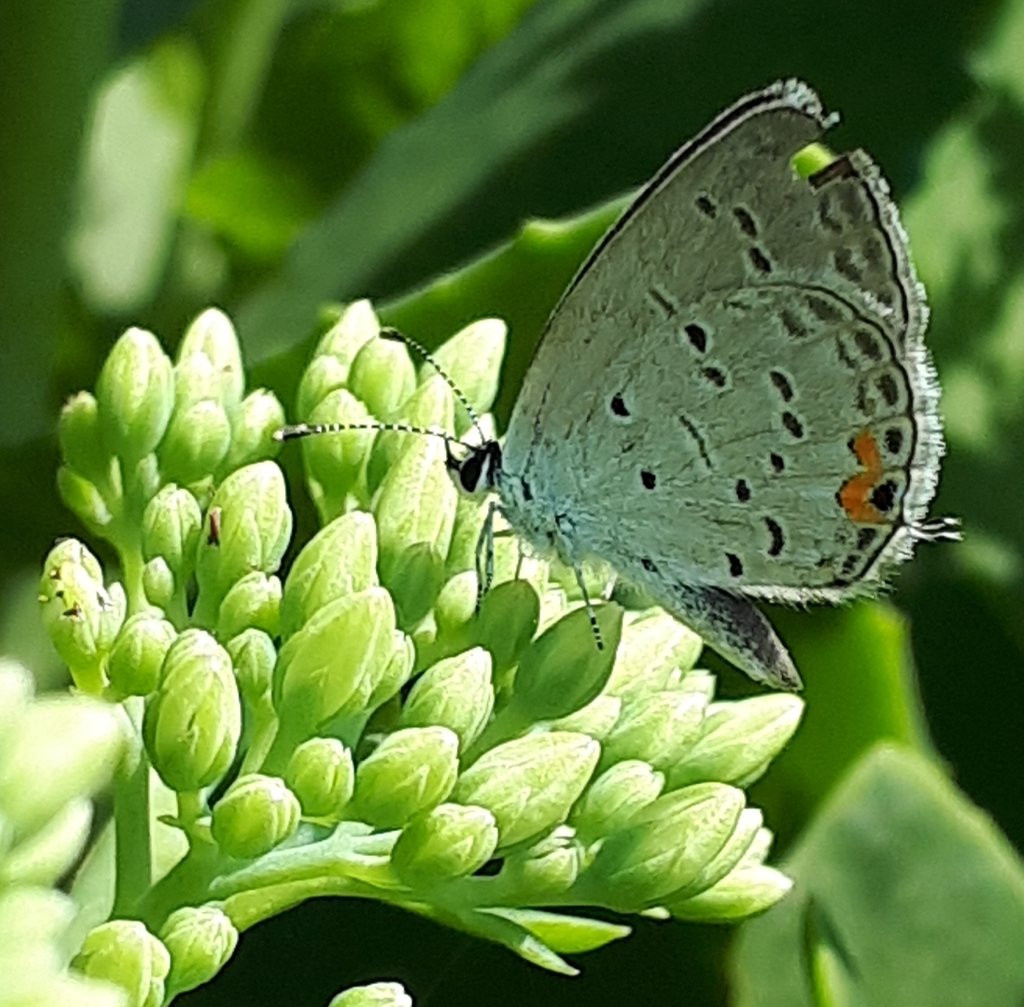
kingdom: Animalia
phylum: Arthropoda
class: Insecta
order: Lepidoptera
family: Lycaenidae
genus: Elkalyce
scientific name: Elkalyce comyntas
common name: Eastern Tailed-Blue
